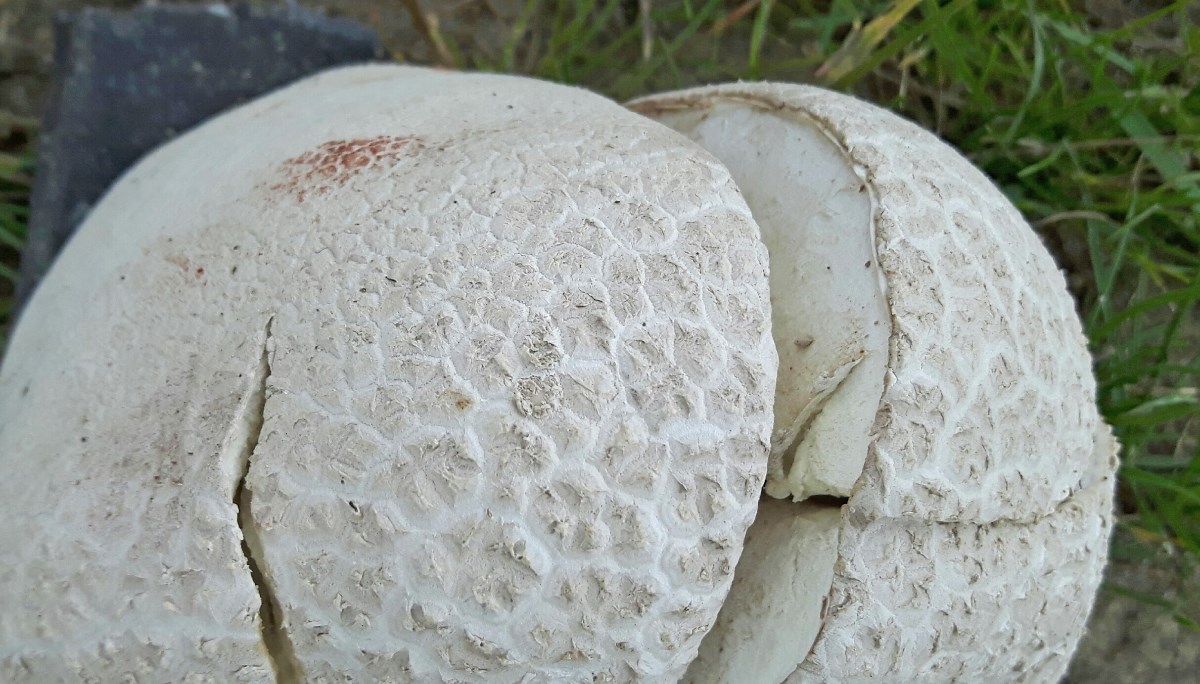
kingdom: Fungi
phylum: Basidiomycota
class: Agaricomycetes
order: Agaricales
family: Lycoperdaceae
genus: Bovistella
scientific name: Bovistella utriformis
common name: skællet støvbold
